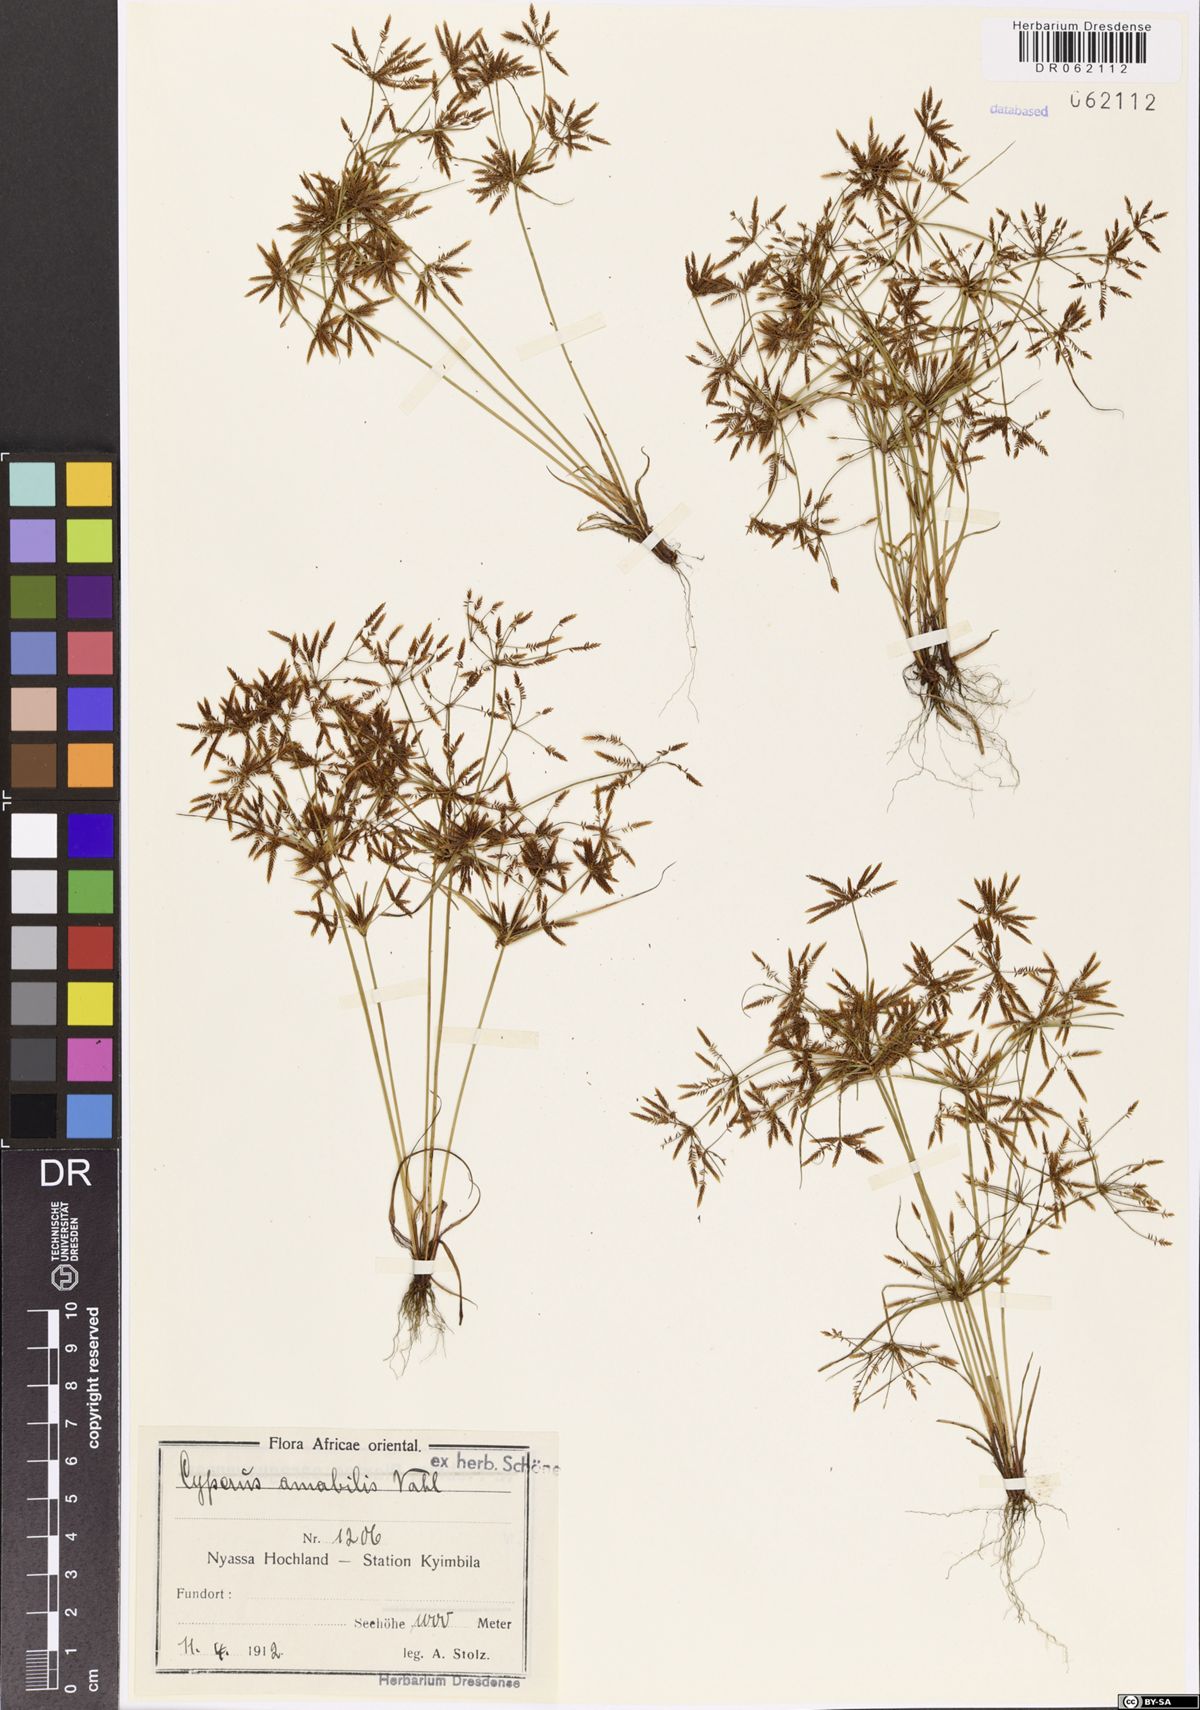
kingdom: Plantae
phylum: Tracheophyta
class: Liliopsida
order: Poales
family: Cyperaceae
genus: Cyperus
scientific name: Cyperus amabilis
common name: Foothill flat sedge
